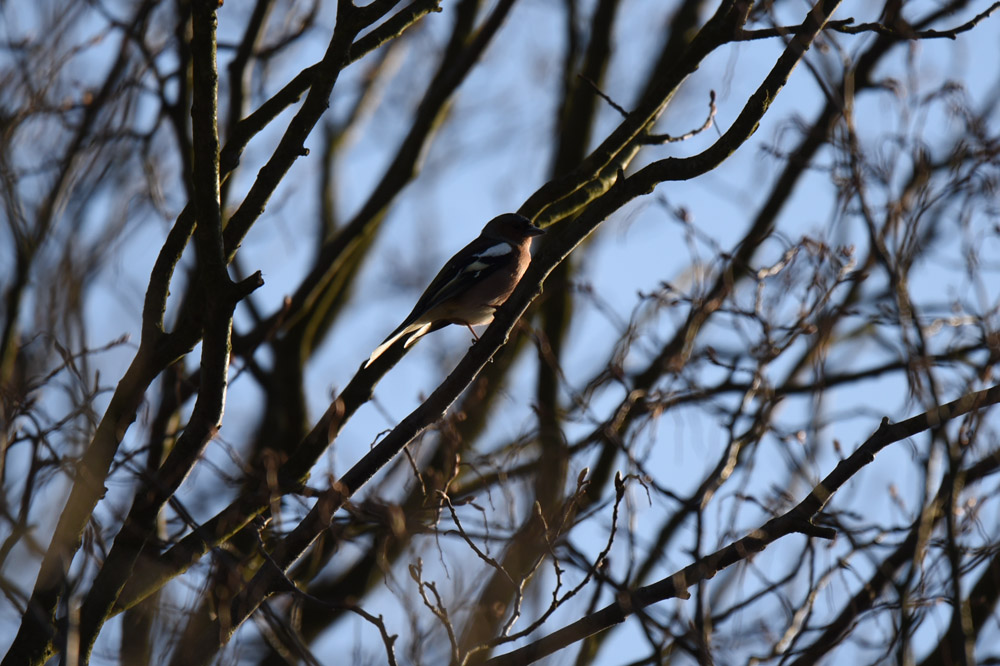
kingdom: Animalia
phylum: Chordata
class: Aves
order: Passeriformes
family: Fringillidae
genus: Fringilla
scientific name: Fringilla coelebs
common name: Common chaffinch
